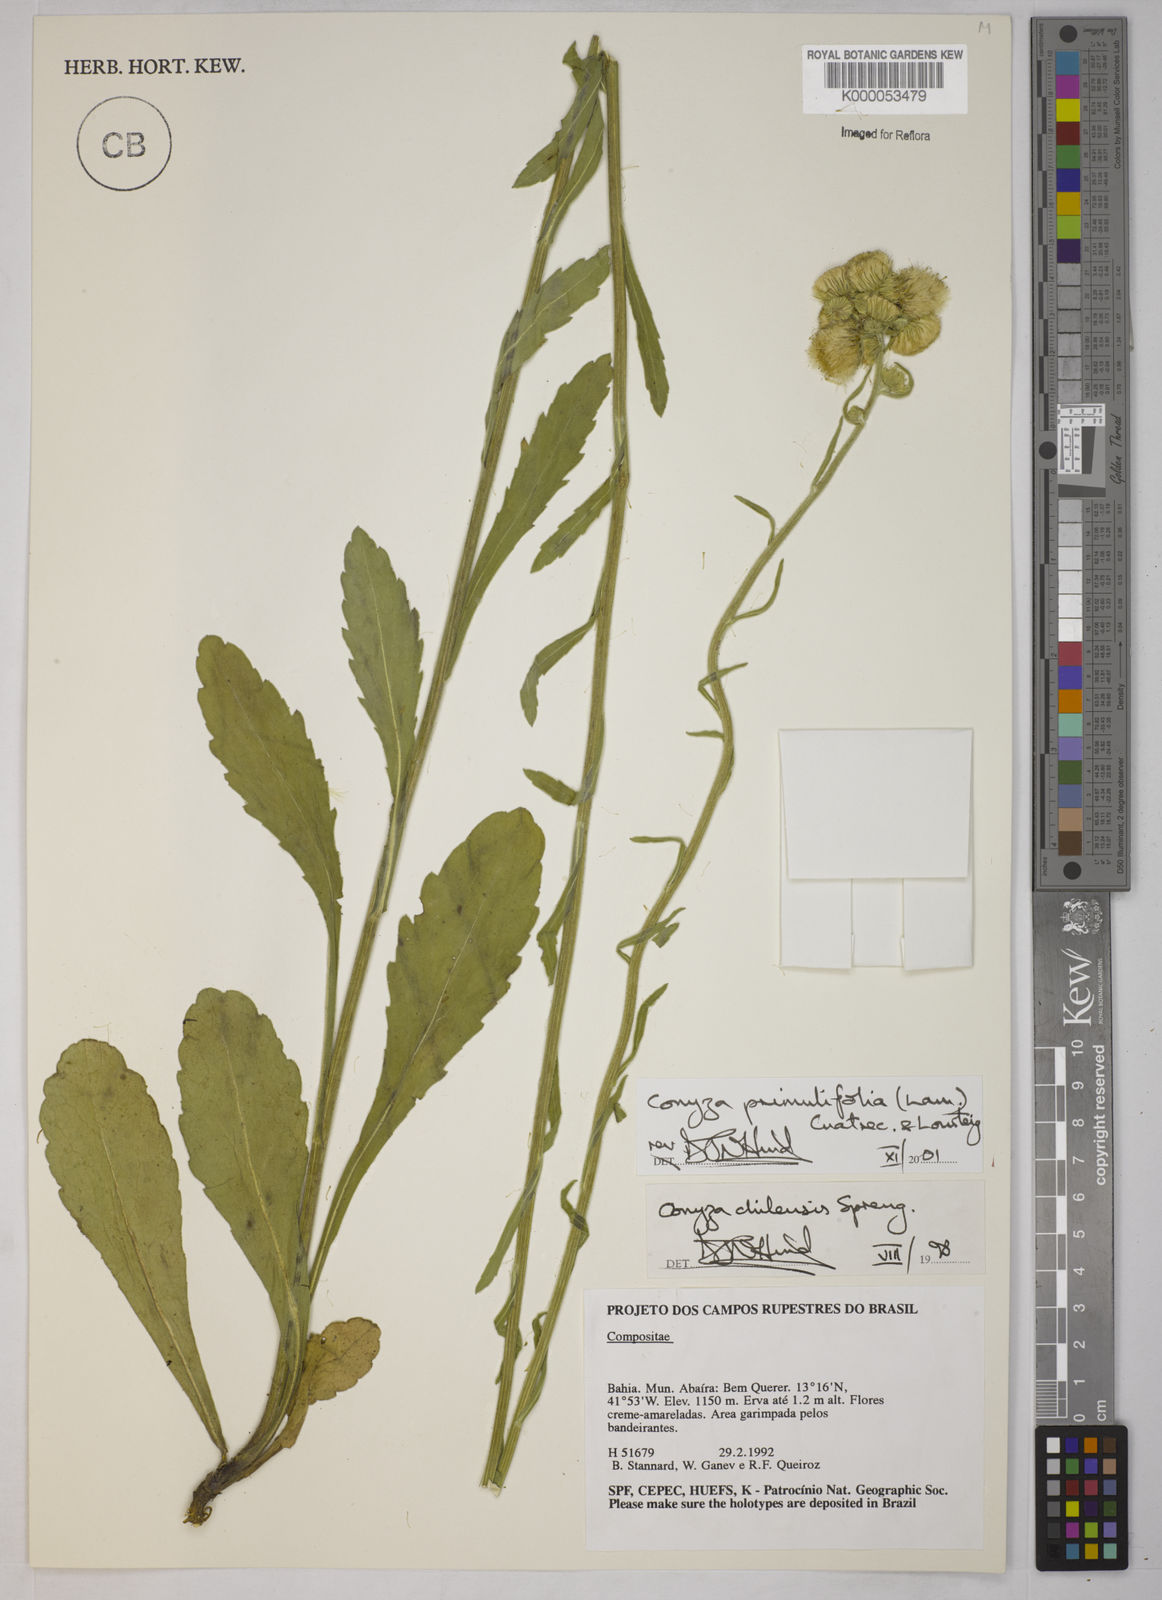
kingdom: Plantae
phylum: Tracheophyta
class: Magnoliopsida
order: Asterales
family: Asteraceae
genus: Erigeron
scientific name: Erigeron primulifolius
